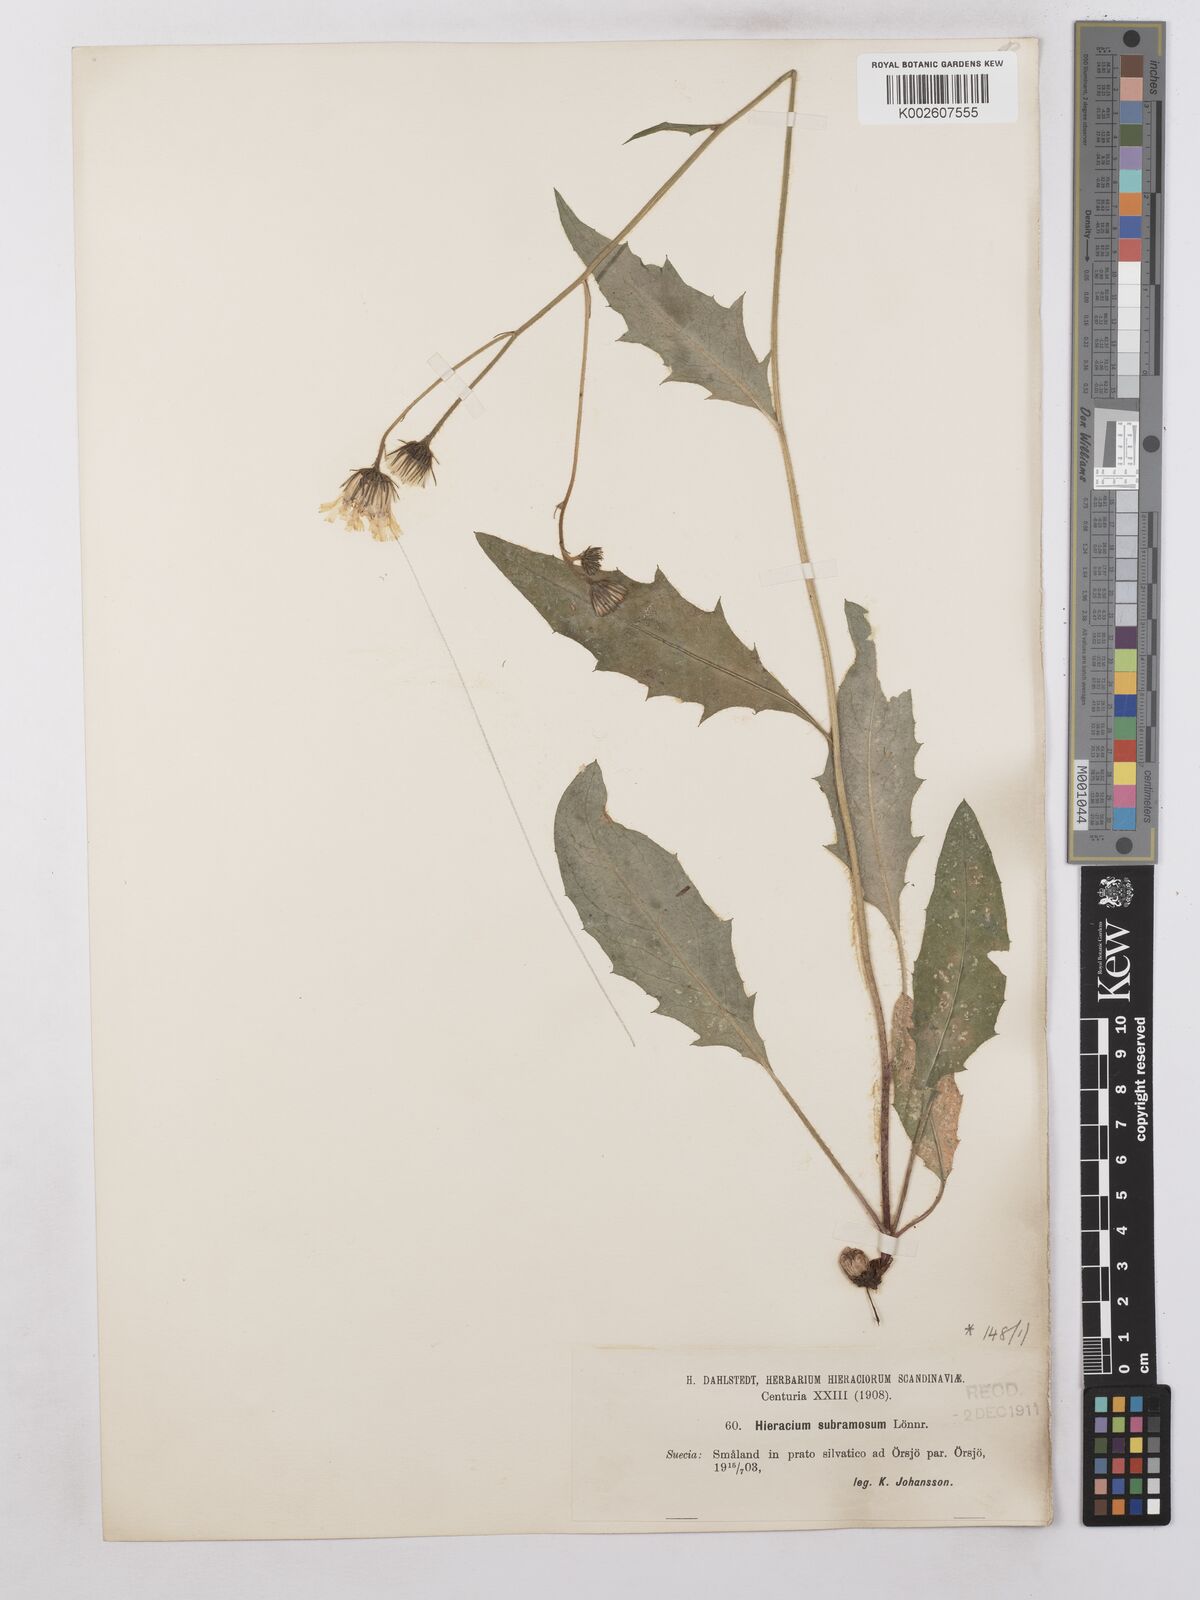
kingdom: Plantae
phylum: Tracheophyta
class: Magnoliopsida
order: Asterales
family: Asteraceae
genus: Hieracium
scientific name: Hieracium subramosum
